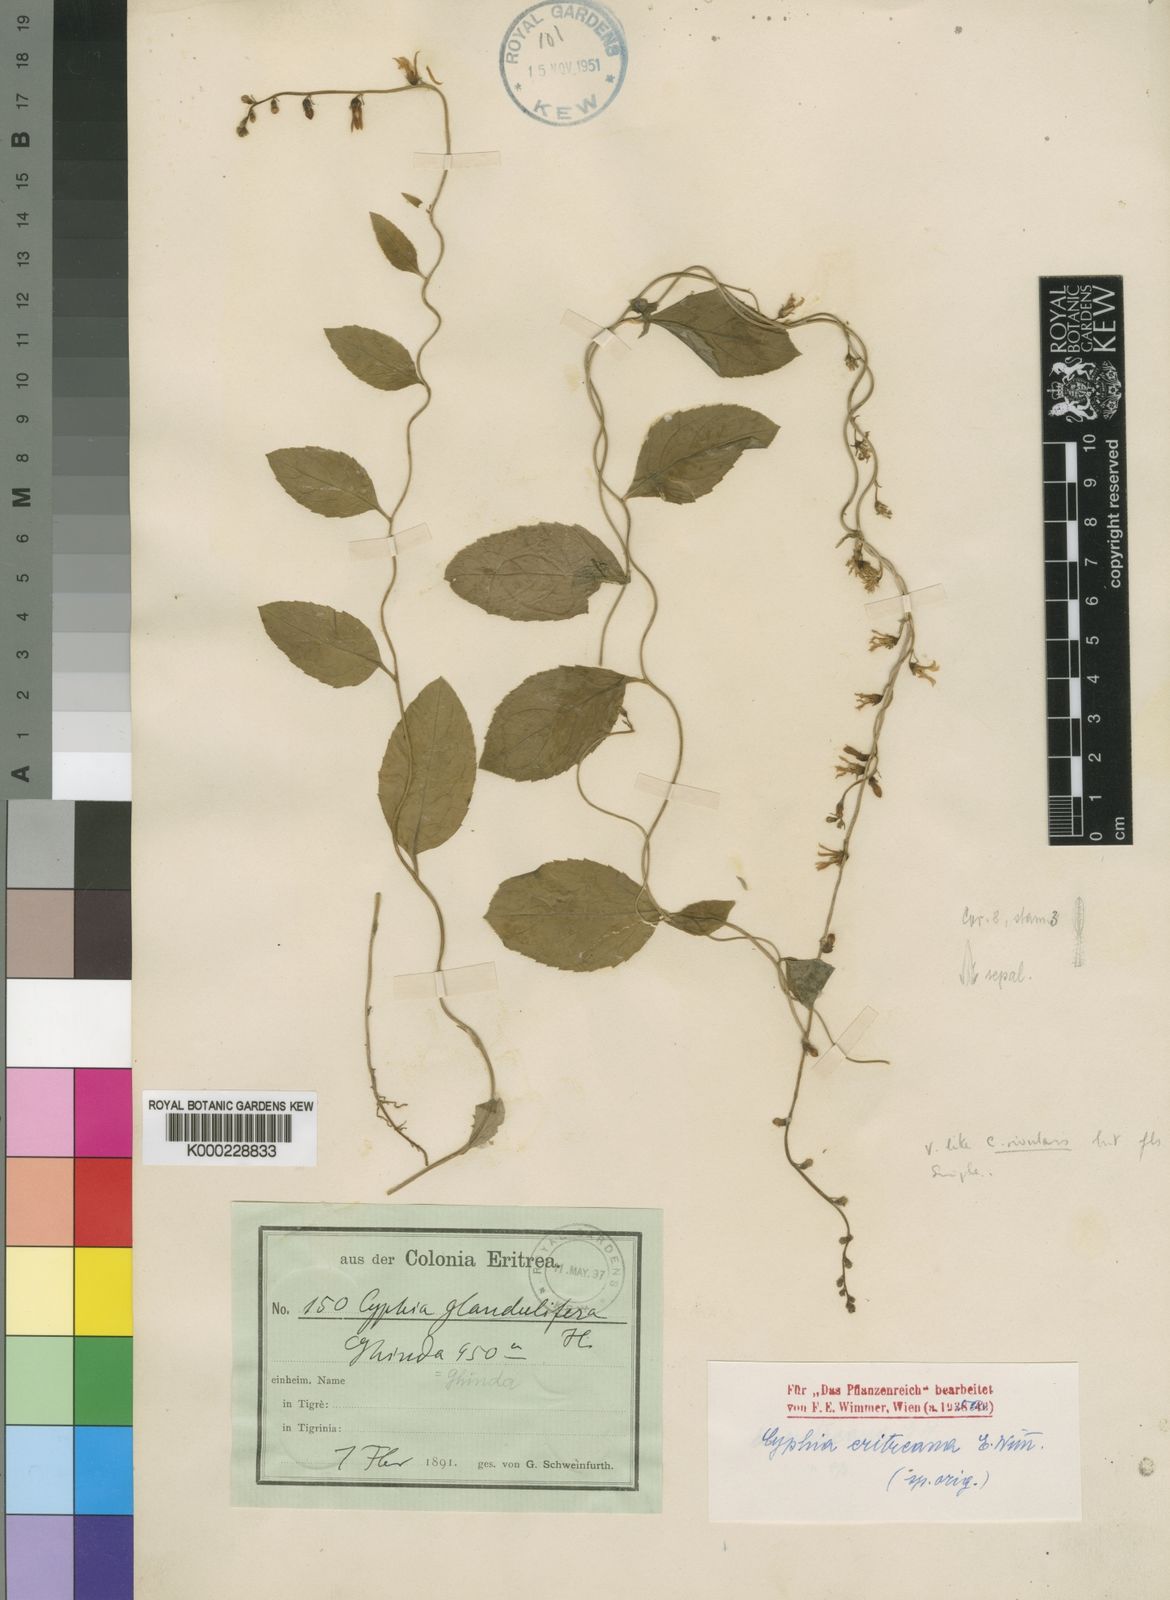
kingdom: Plantae
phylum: Tracheophyta
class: Magnoliopsida
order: Asterales
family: Campanulaceae
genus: Cyphia
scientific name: Cyphia eritreana
